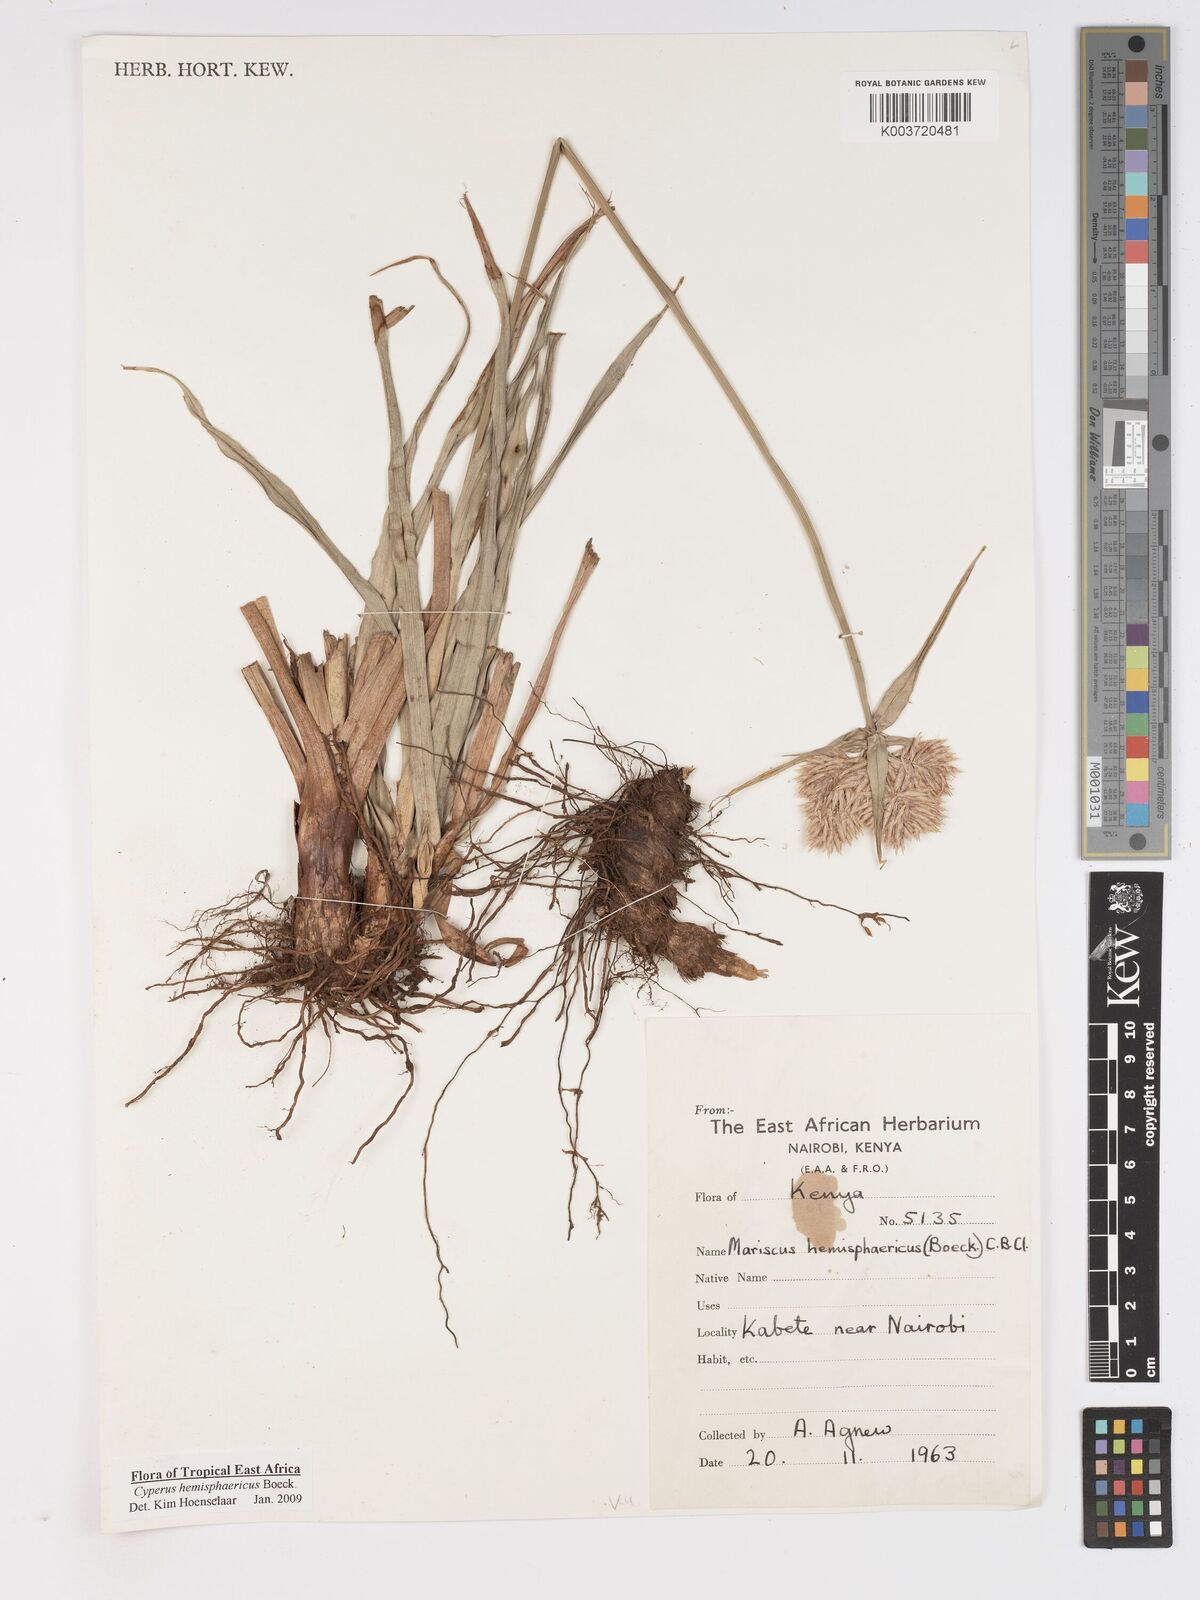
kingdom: Plantae
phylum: Tracheophyta
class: Liliopsida
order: Poales
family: Cyperaceae
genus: Cyperus
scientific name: Cyperus hemisphaericus
